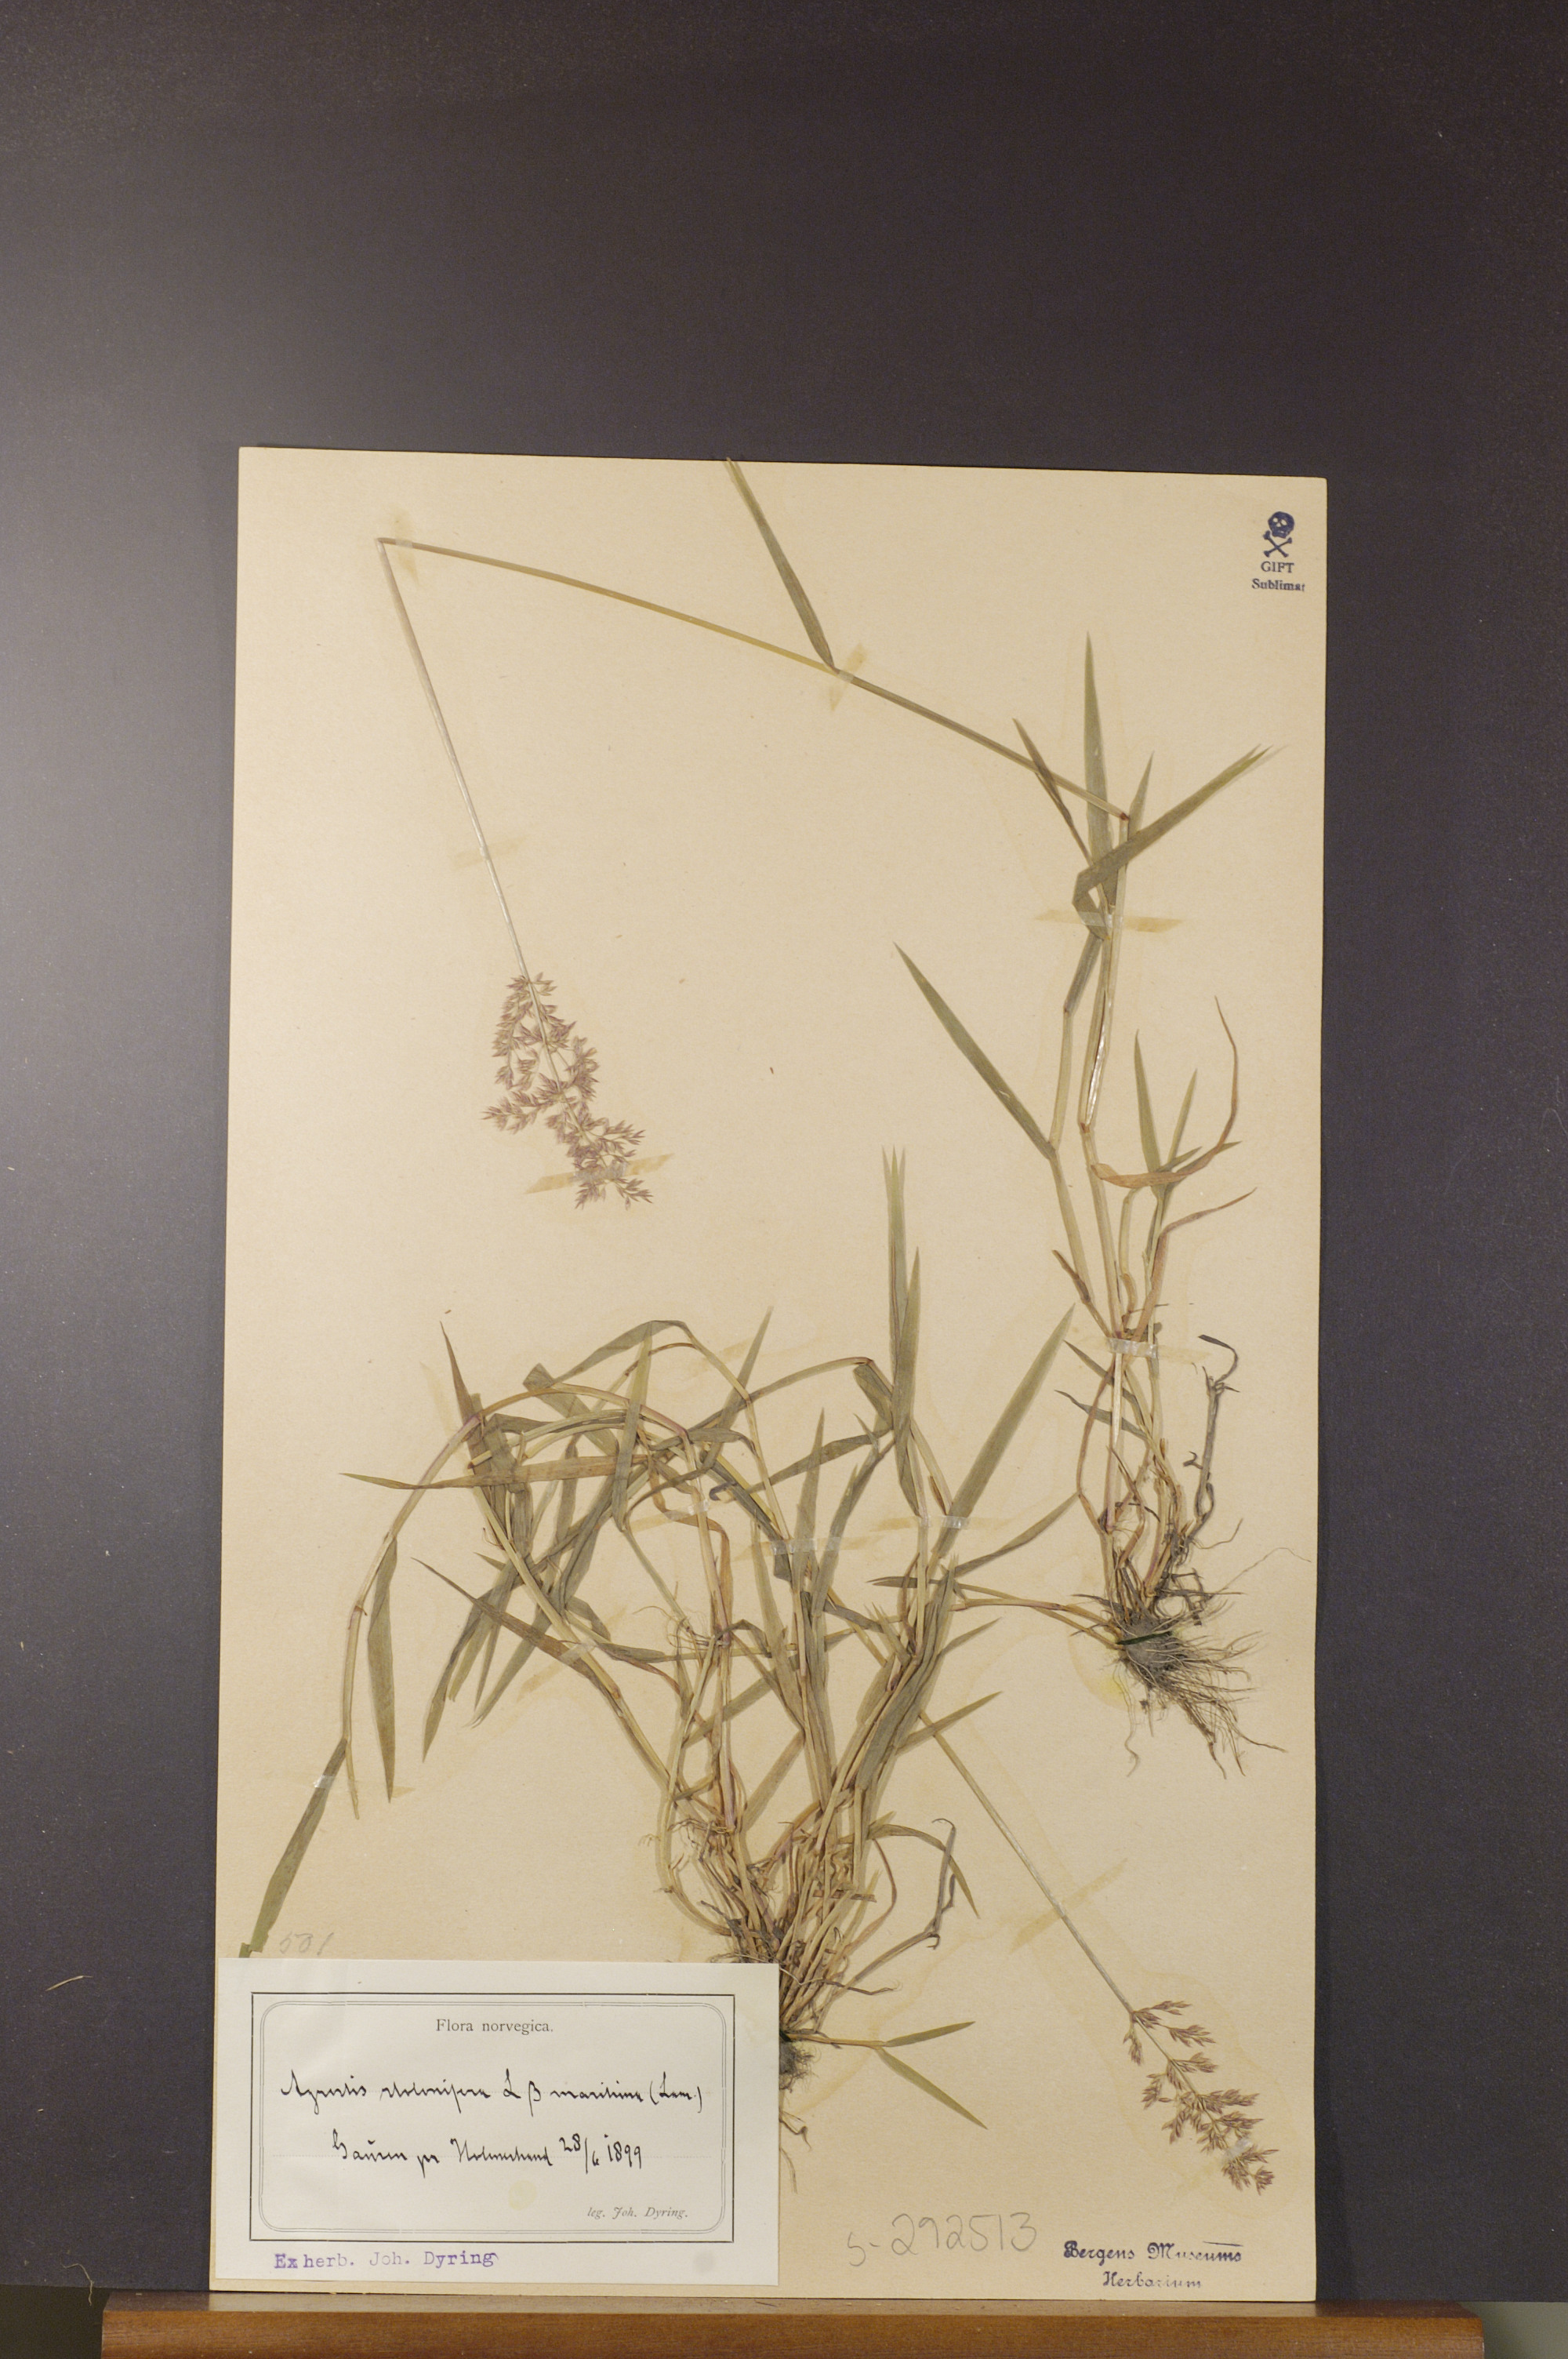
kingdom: Plantae
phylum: Tracheophyta
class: Liliopsida
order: Poales
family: Poaceae
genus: Agrostis
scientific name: Agrostis stolonifera
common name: Creeping bentgrass
